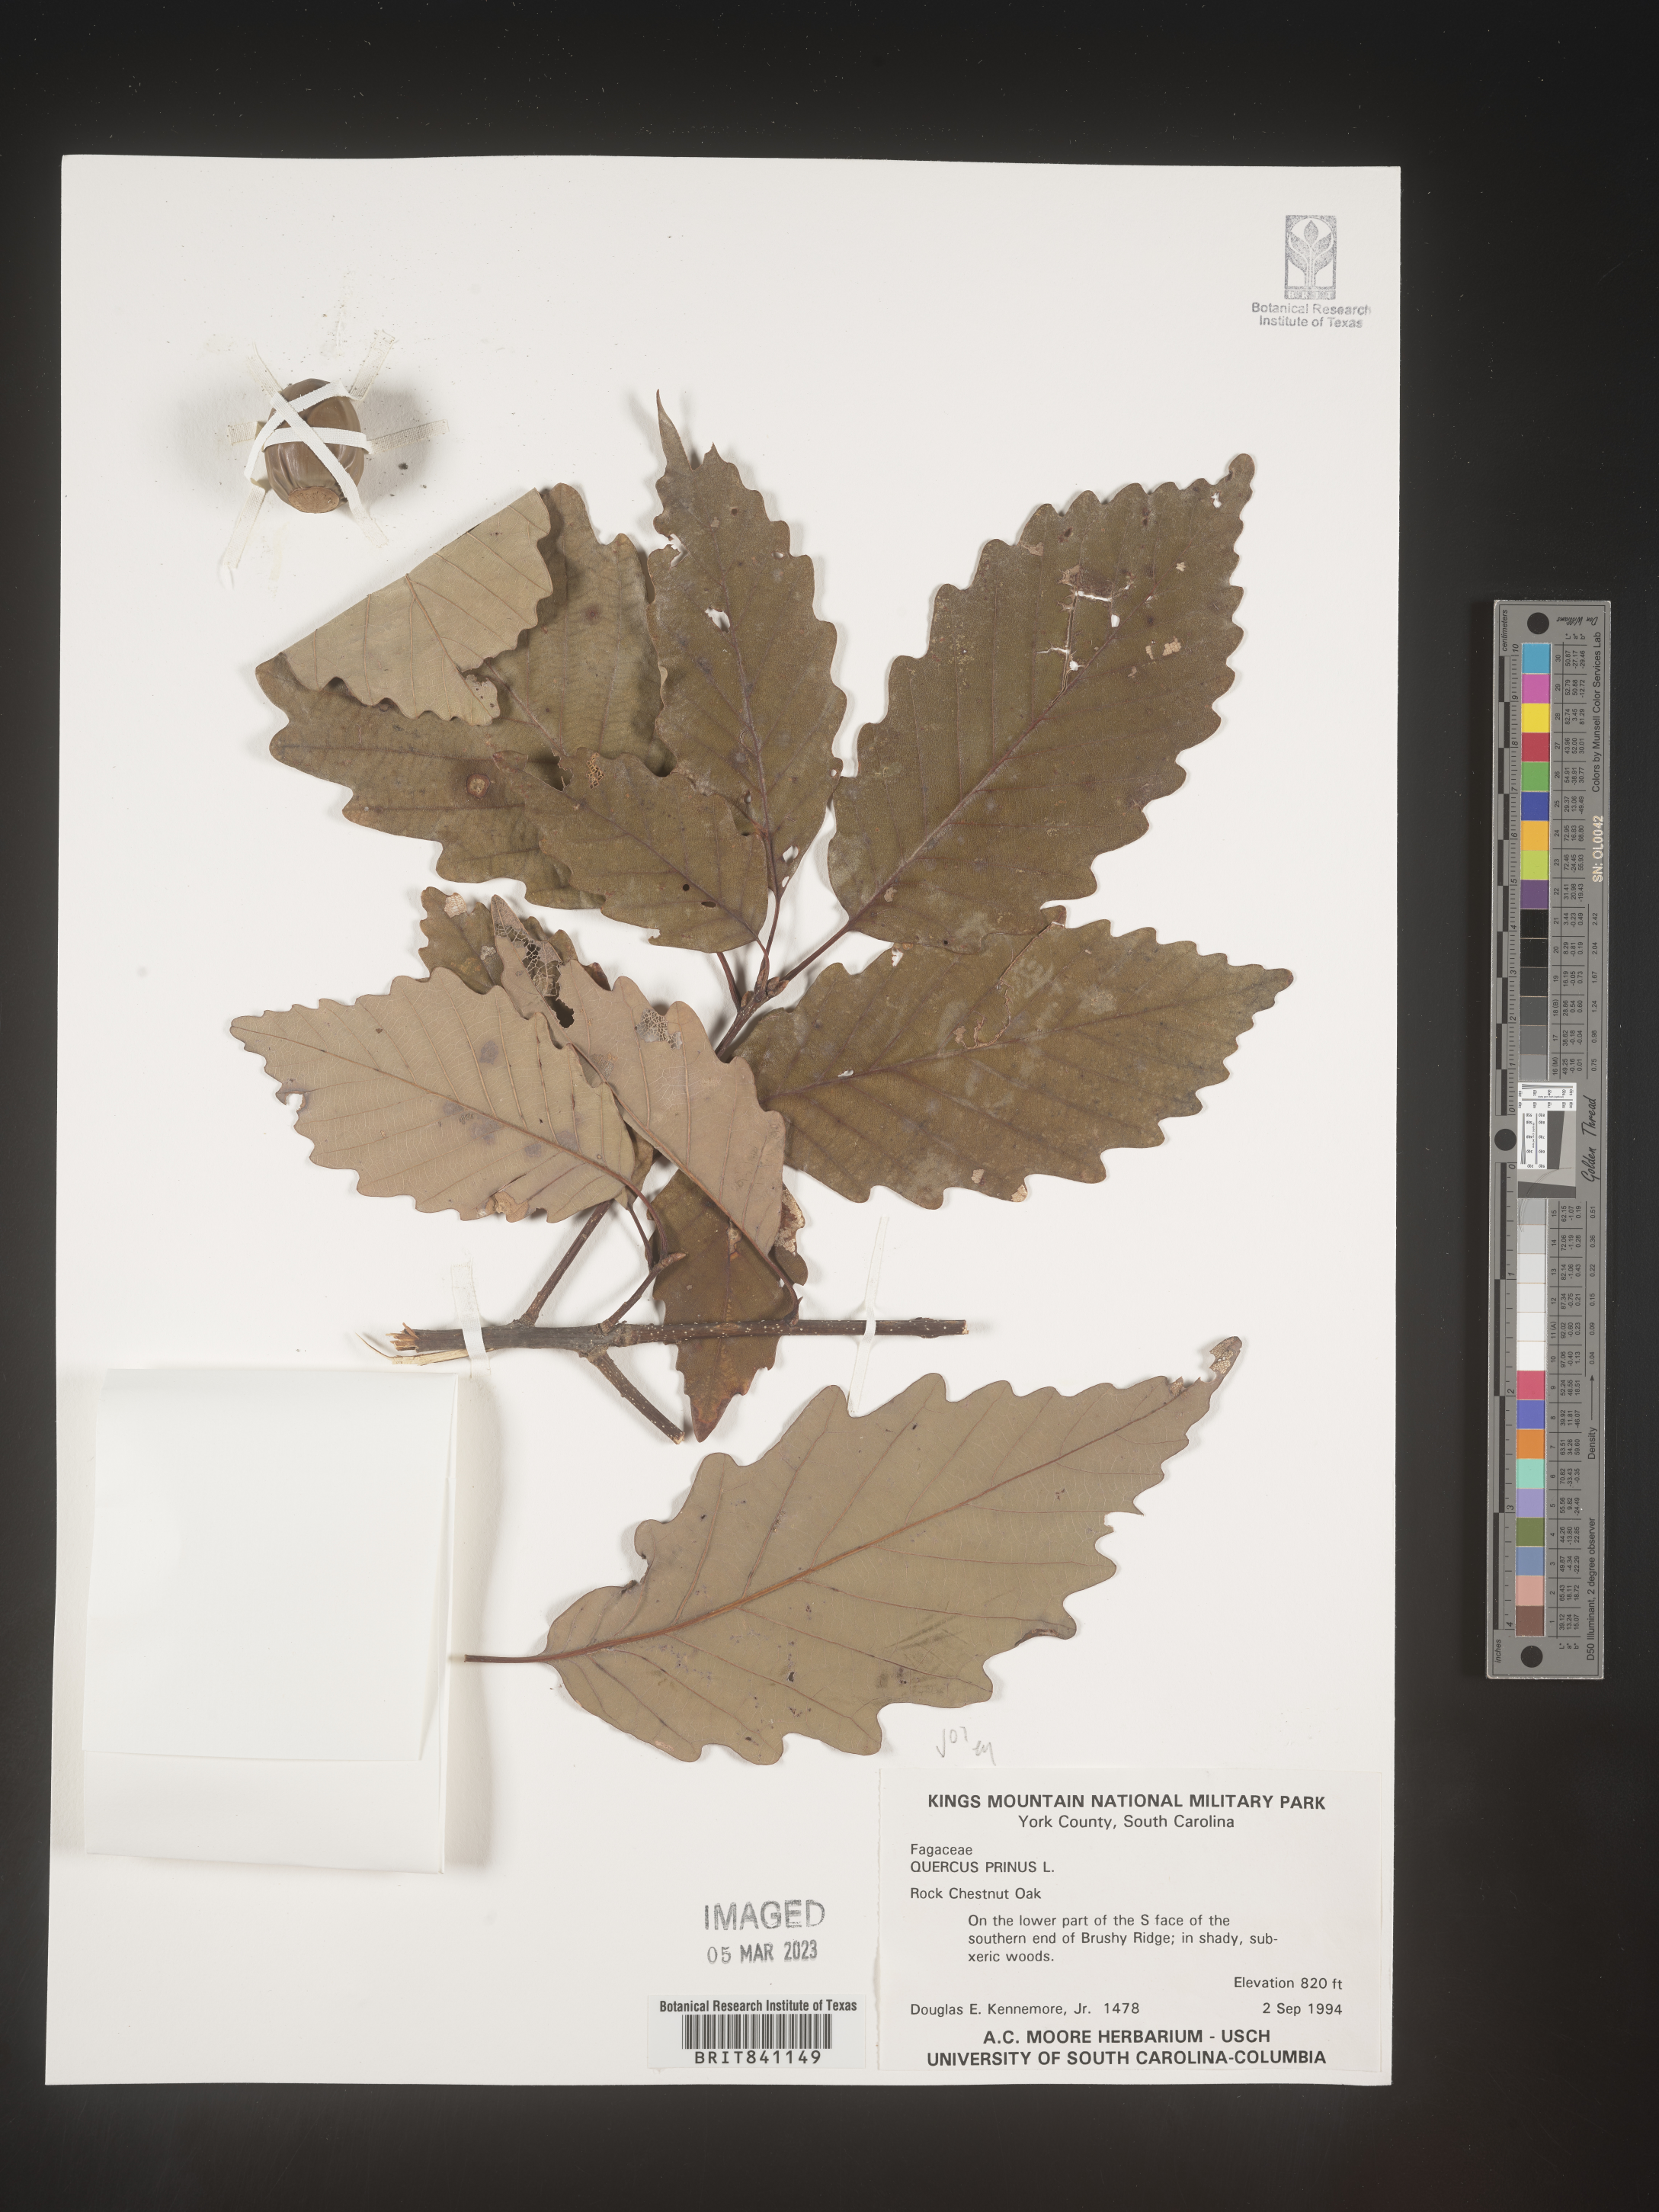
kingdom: Plantae
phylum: Tracheophyta
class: Magnoliopsida
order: Fagales
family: Fagaceae
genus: Quercus
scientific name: Quercus michauxii
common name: Swamp chestnut oak
